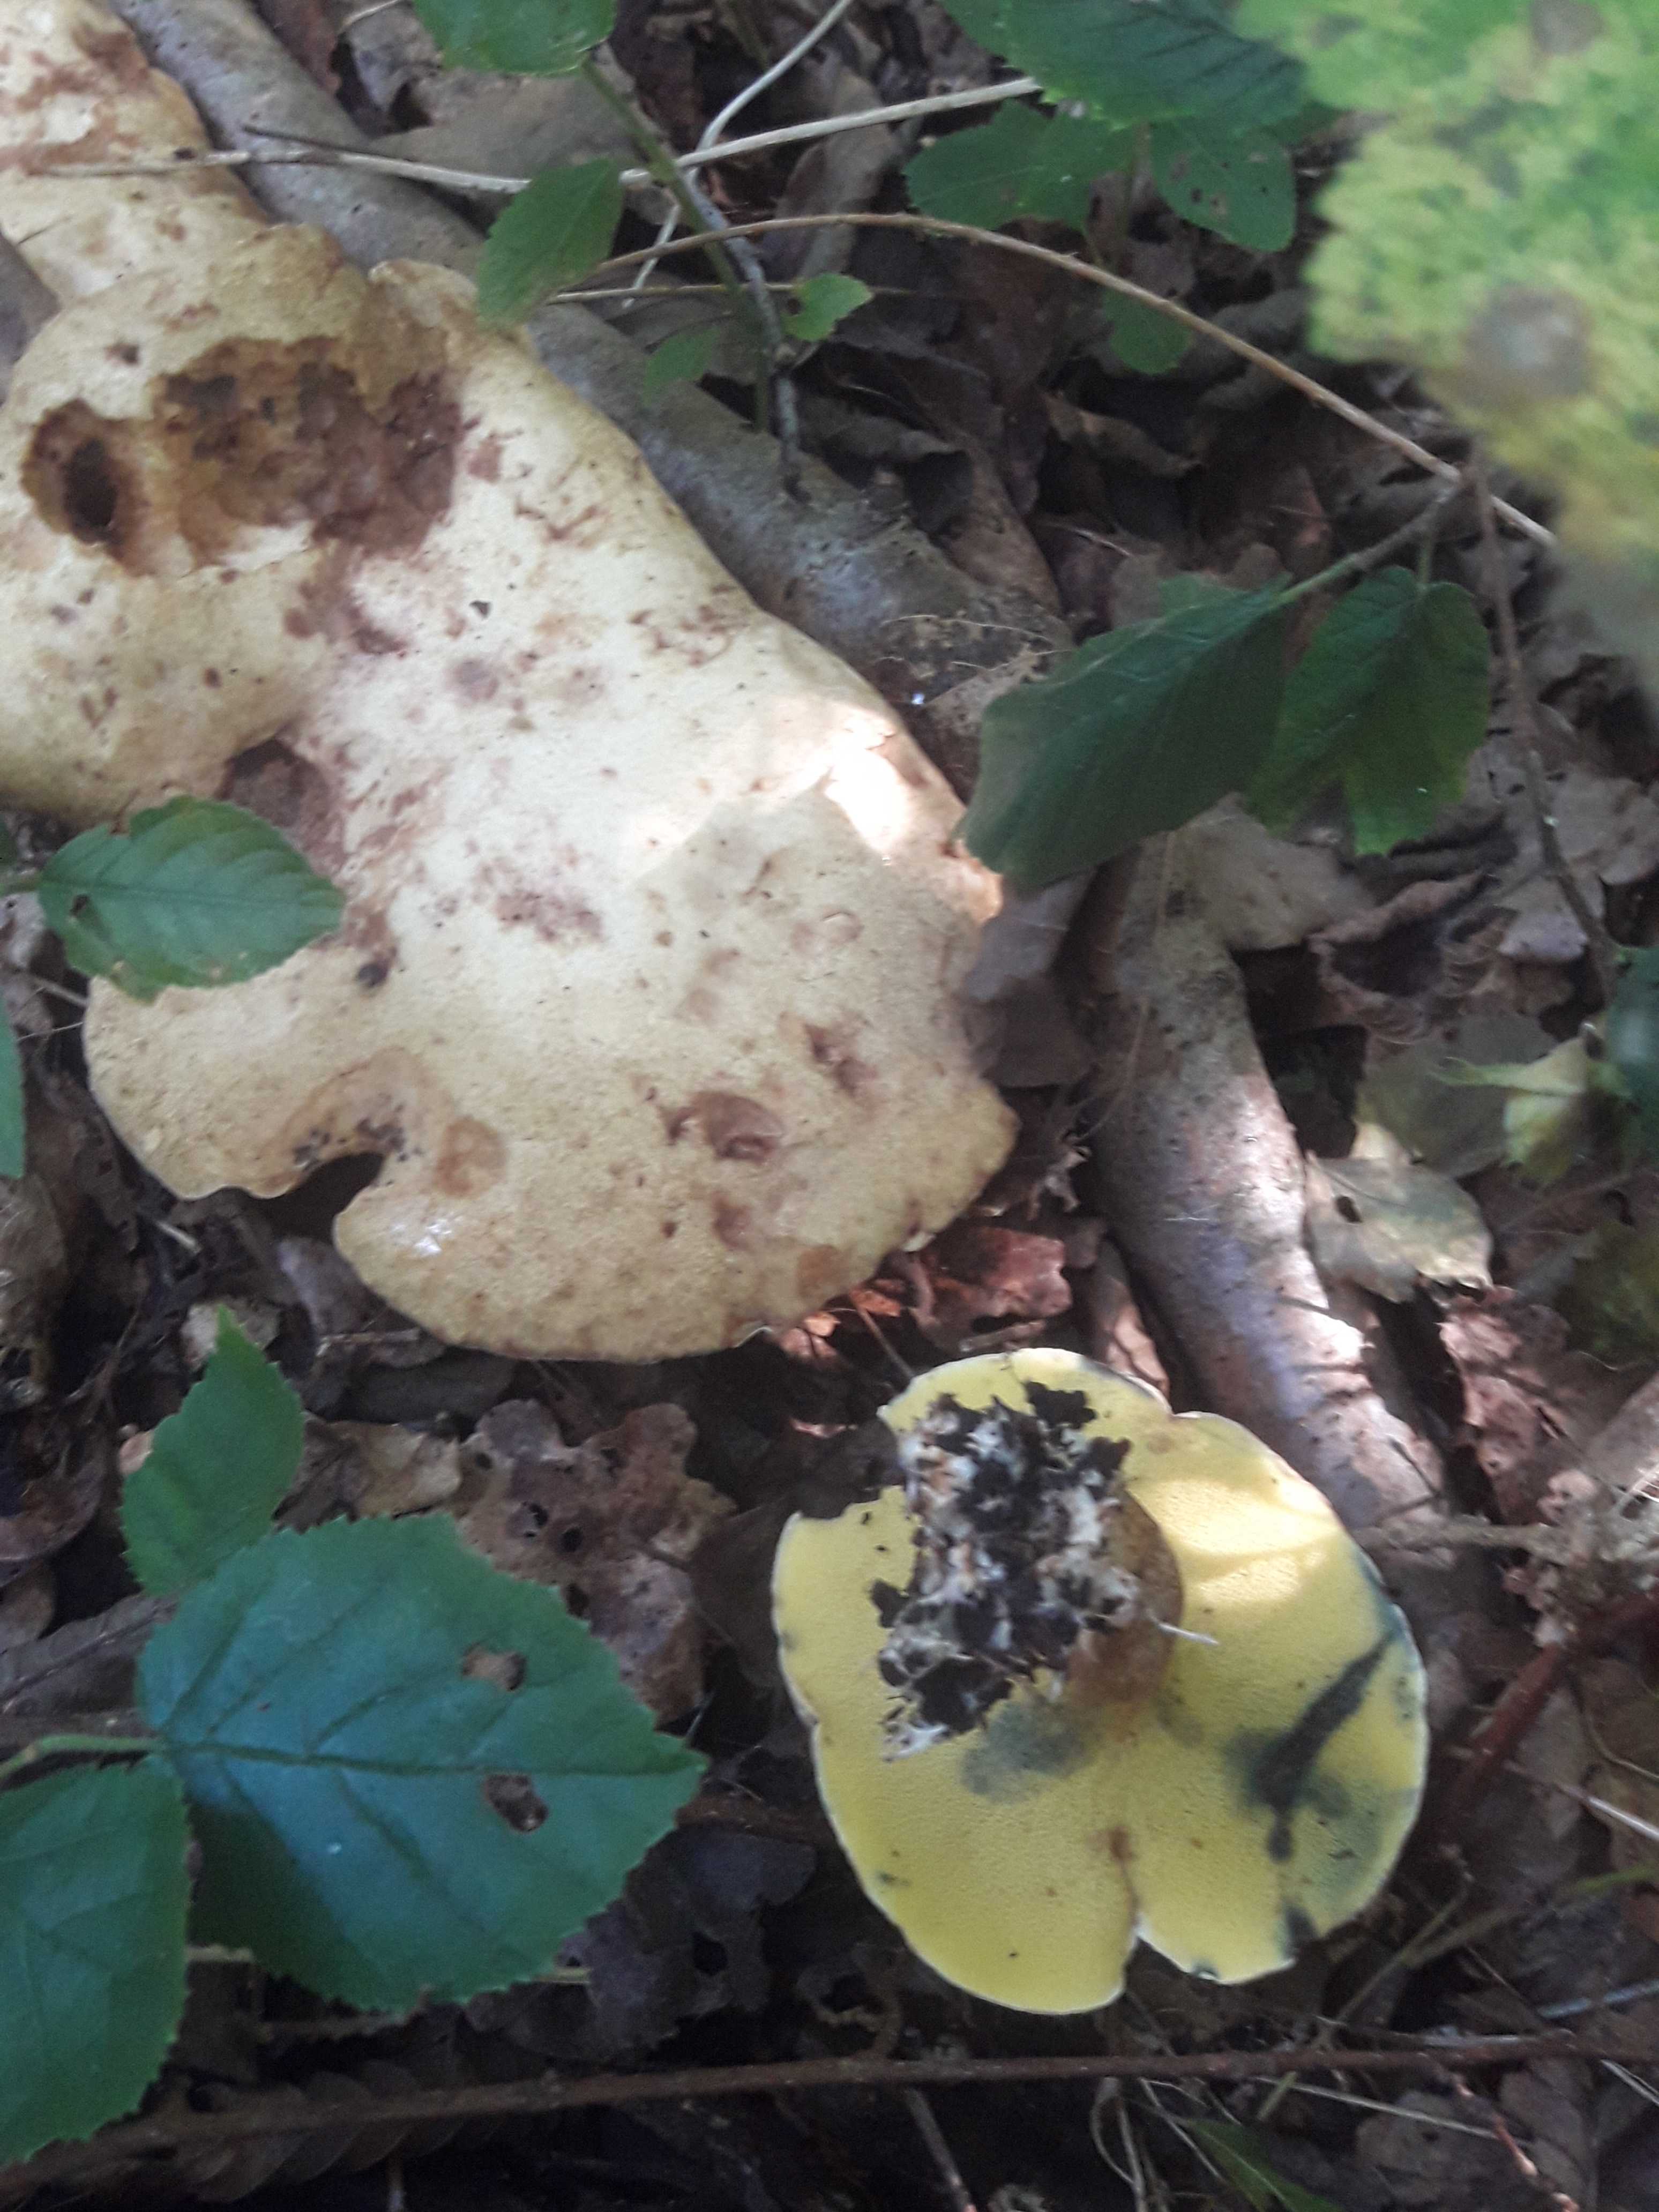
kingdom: Fungi
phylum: Basidiomycota
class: Agaricomycetes
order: Boletales
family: Paxillaceae
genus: Gyrodon
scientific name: Gyrodon lividus
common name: ellerørhat
